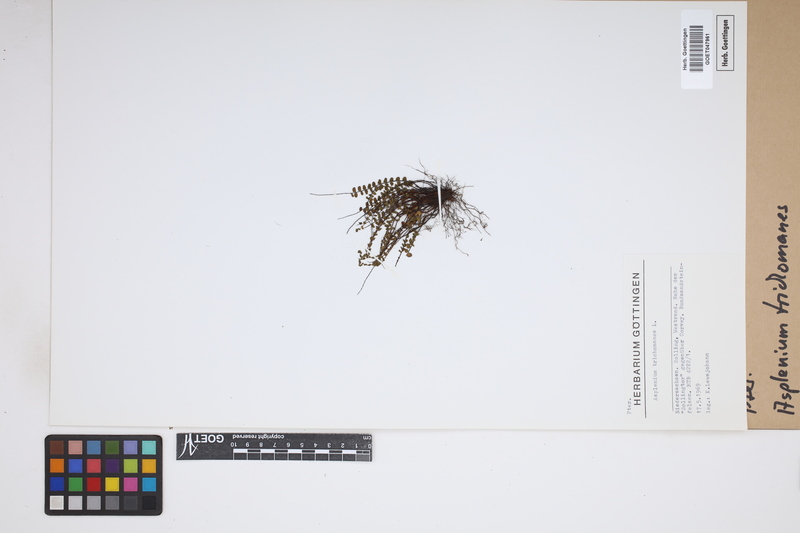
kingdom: Plantae
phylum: Tracheophyta
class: Polypodiopsida
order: Polypodiales
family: Aspleniaceae
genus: Asplenium
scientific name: Asplenium trichomanes
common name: Maidenhair spleenwort
